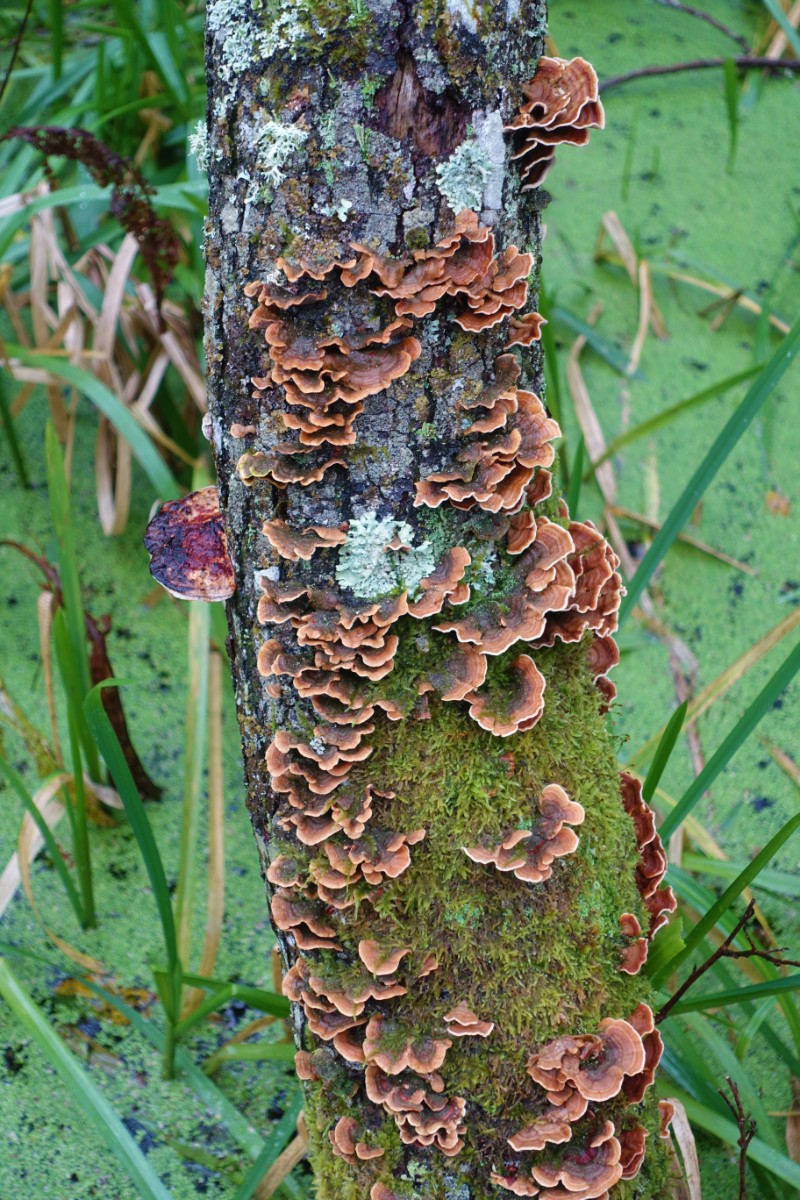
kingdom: Fungi
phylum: Basidiomycota
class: Agaricomycetes
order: Russulales
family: Stereaceae
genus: Stereum
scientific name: Stereum subtomentosum
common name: smuk lædersvamp
